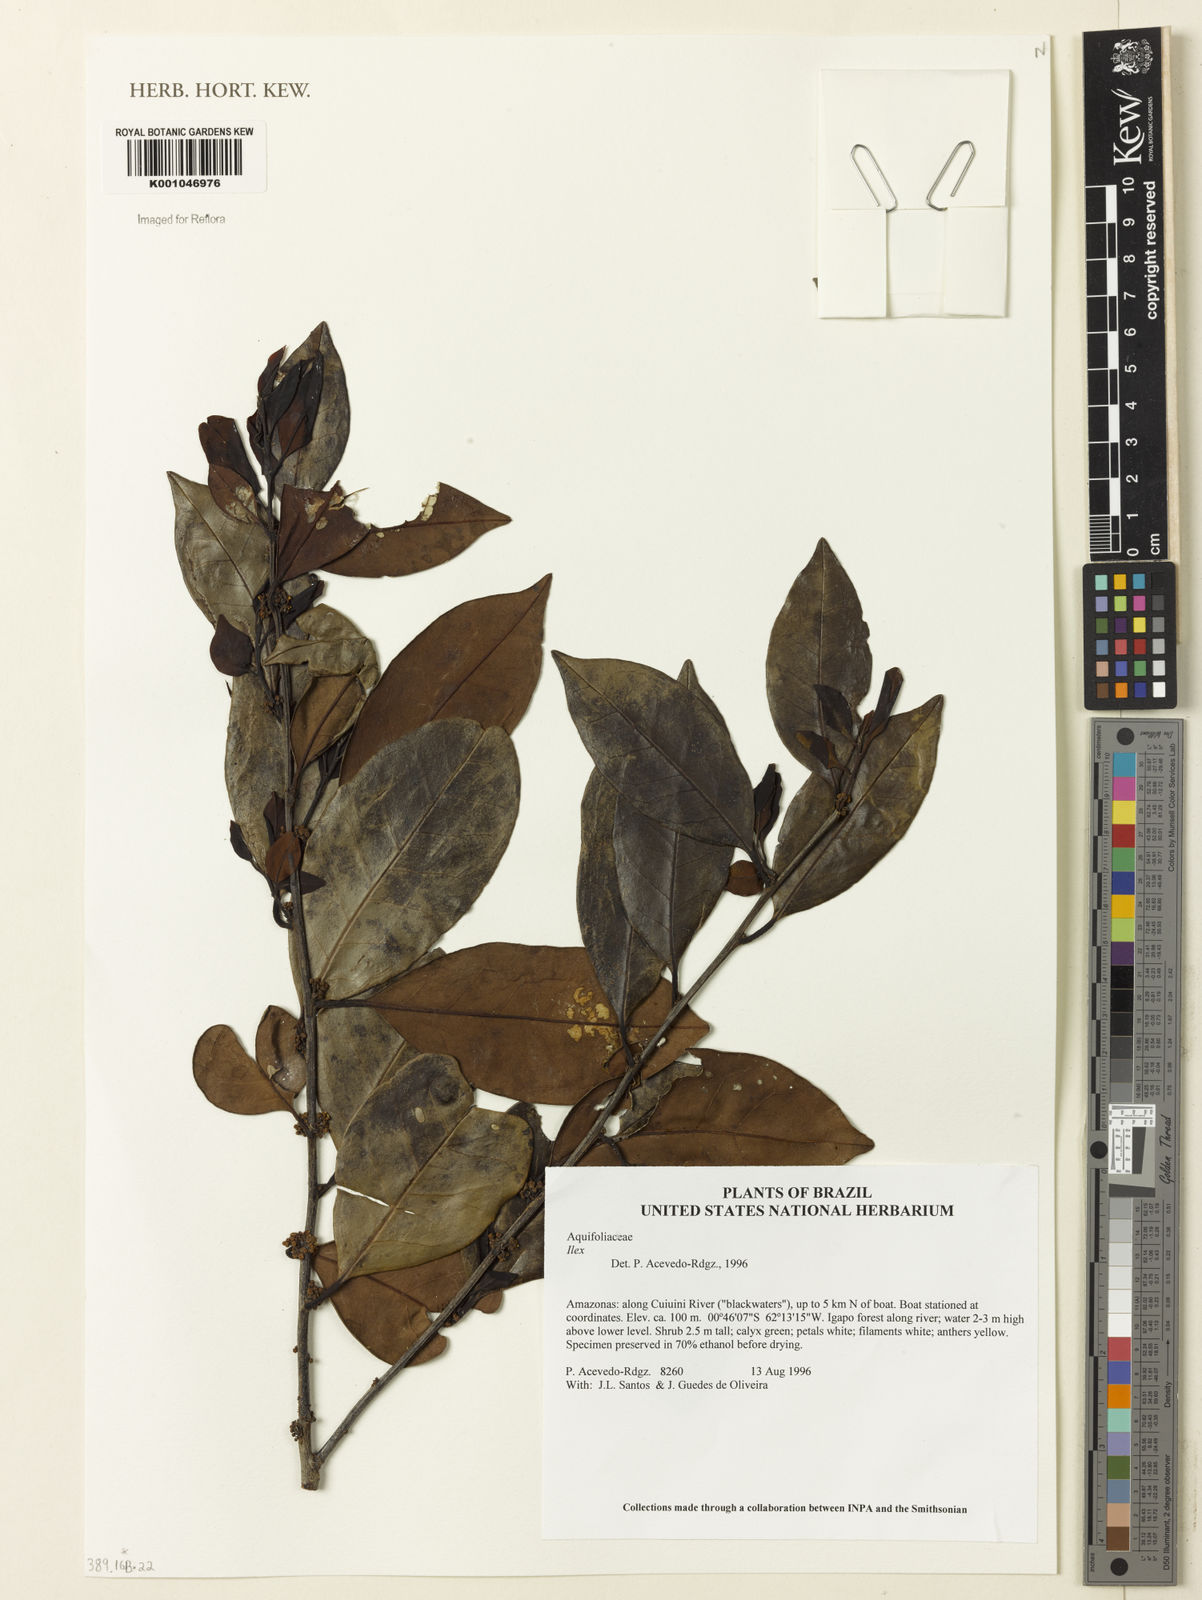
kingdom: Plantae
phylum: Tracheophyta
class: Magnoliopsida
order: Aquifoliales
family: Aquifoliaceae
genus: Ilex
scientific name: Ilex
